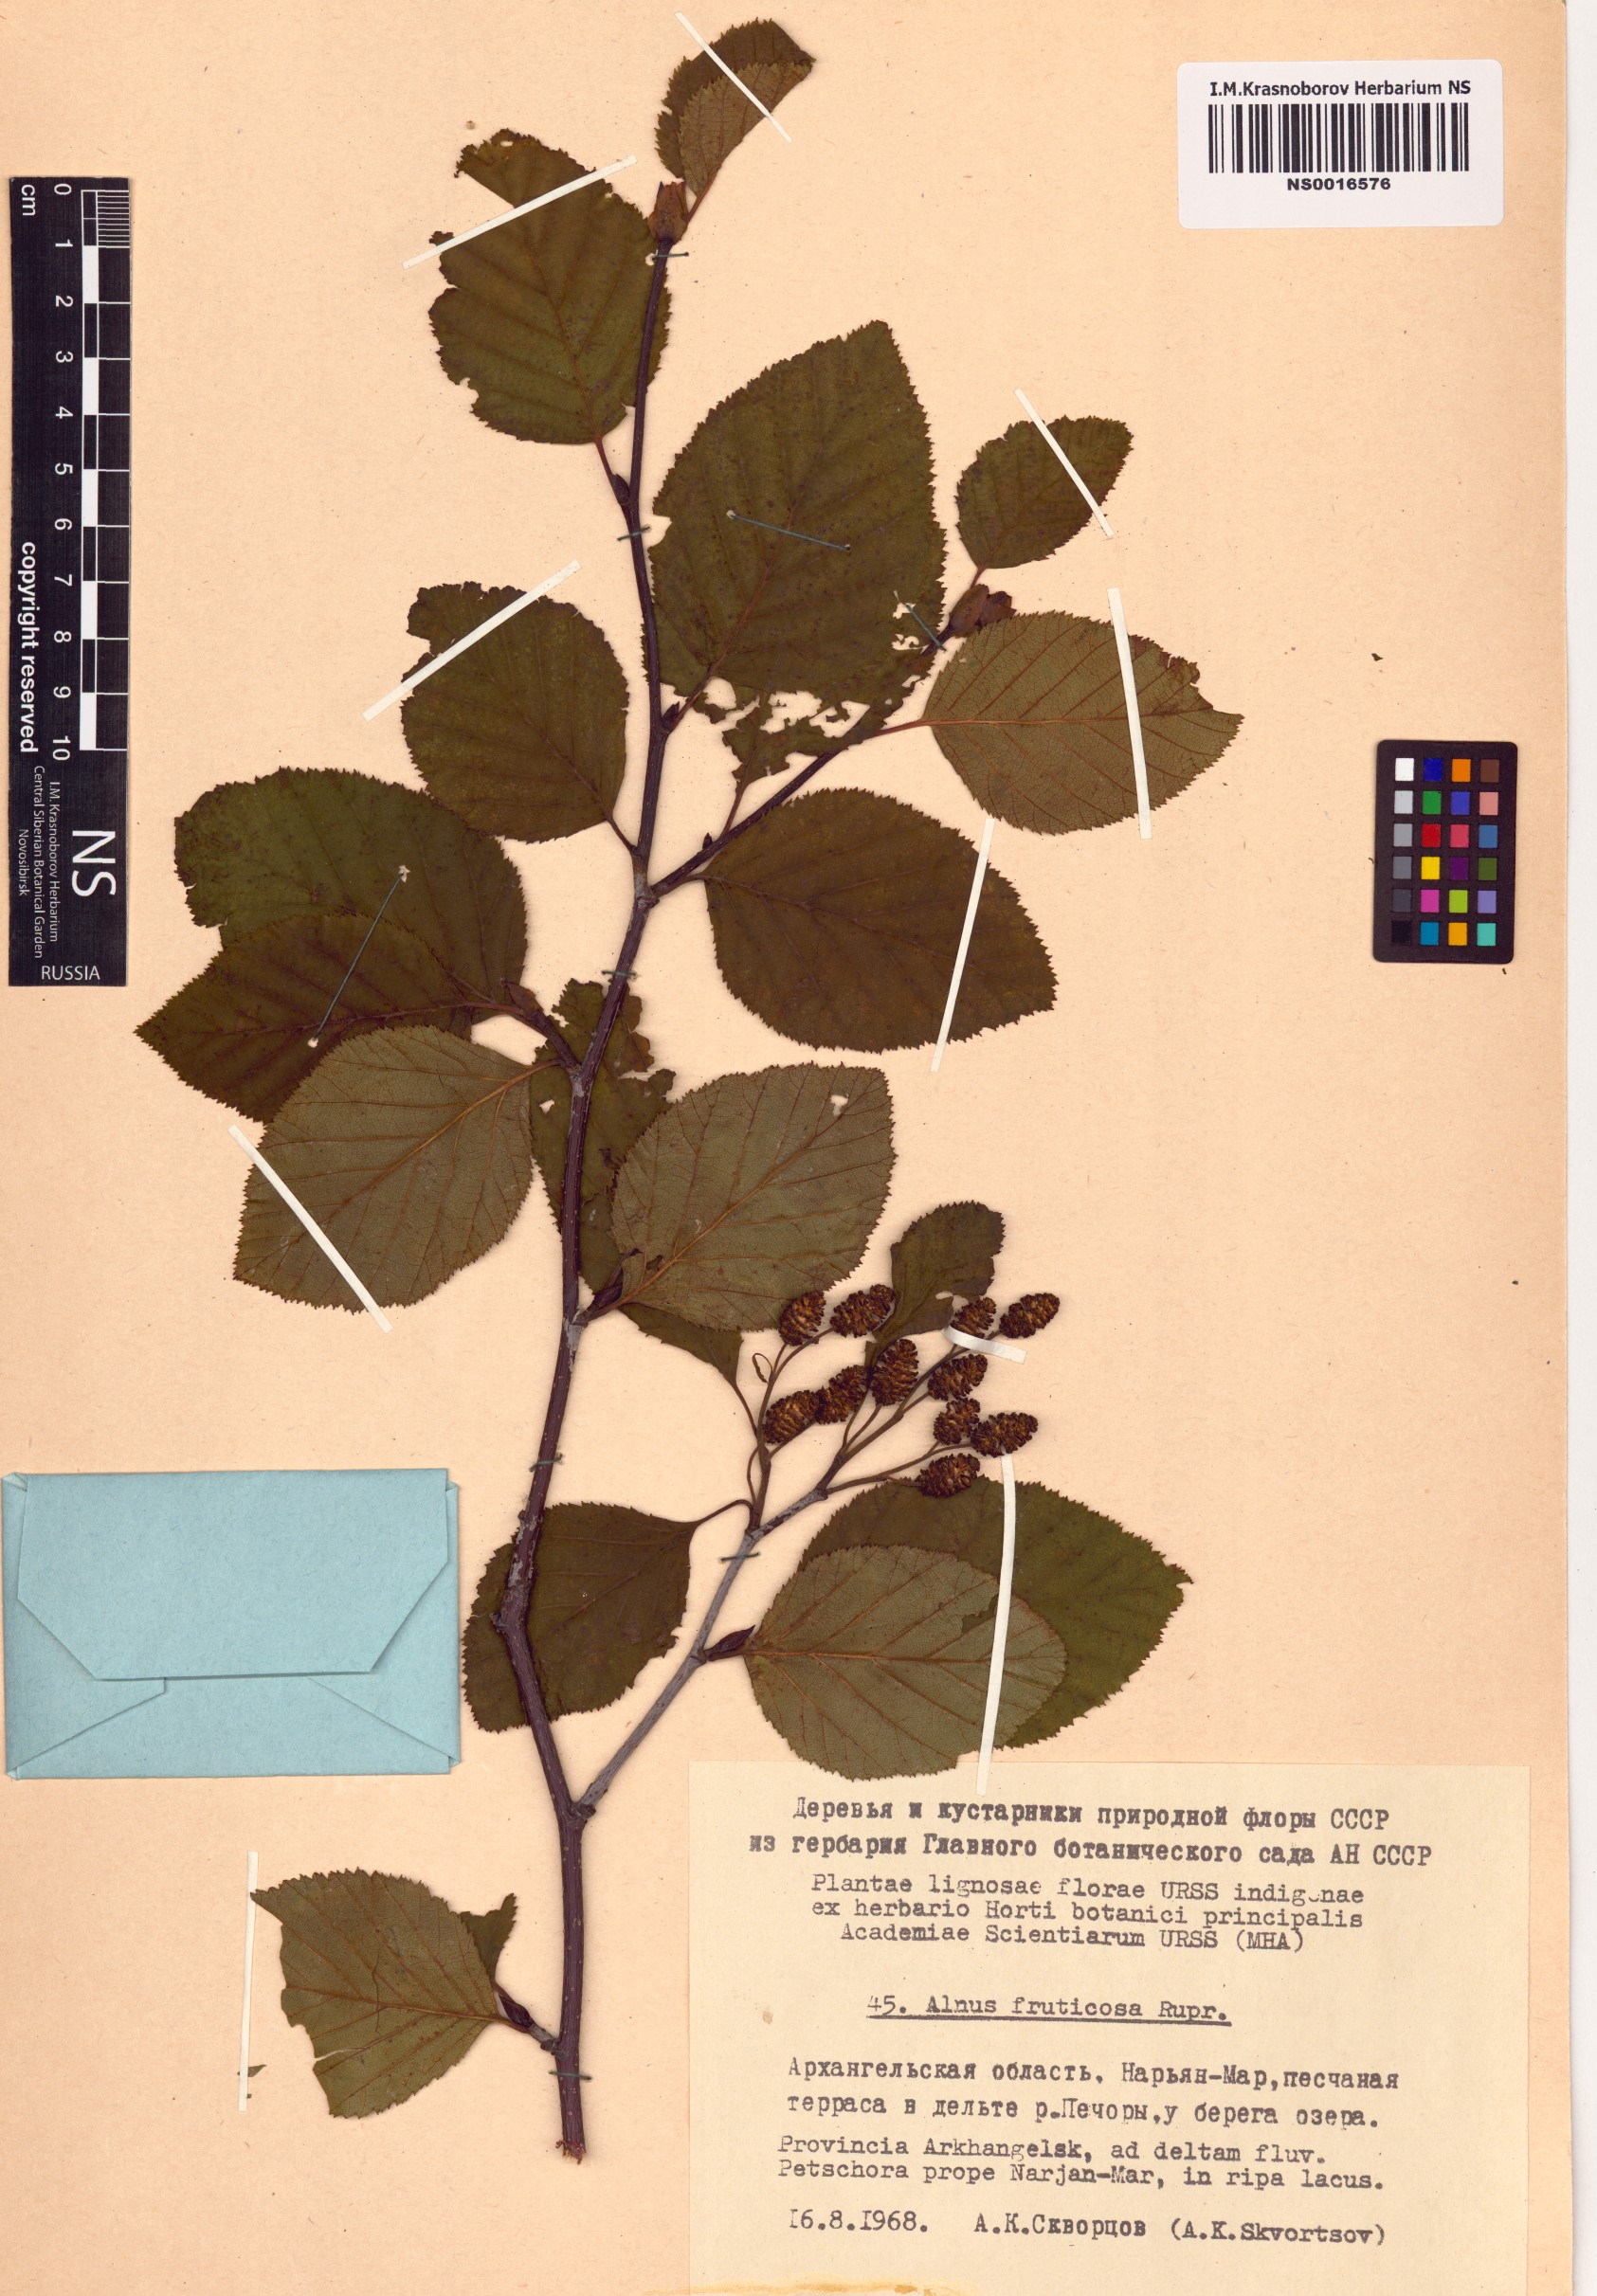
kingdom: Plantae
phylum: Tracheophyta
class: Magnoliopsida
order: Fagales
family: Betulaceae
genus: Alnus
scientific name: Alnus alnobetula
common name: Green alder
